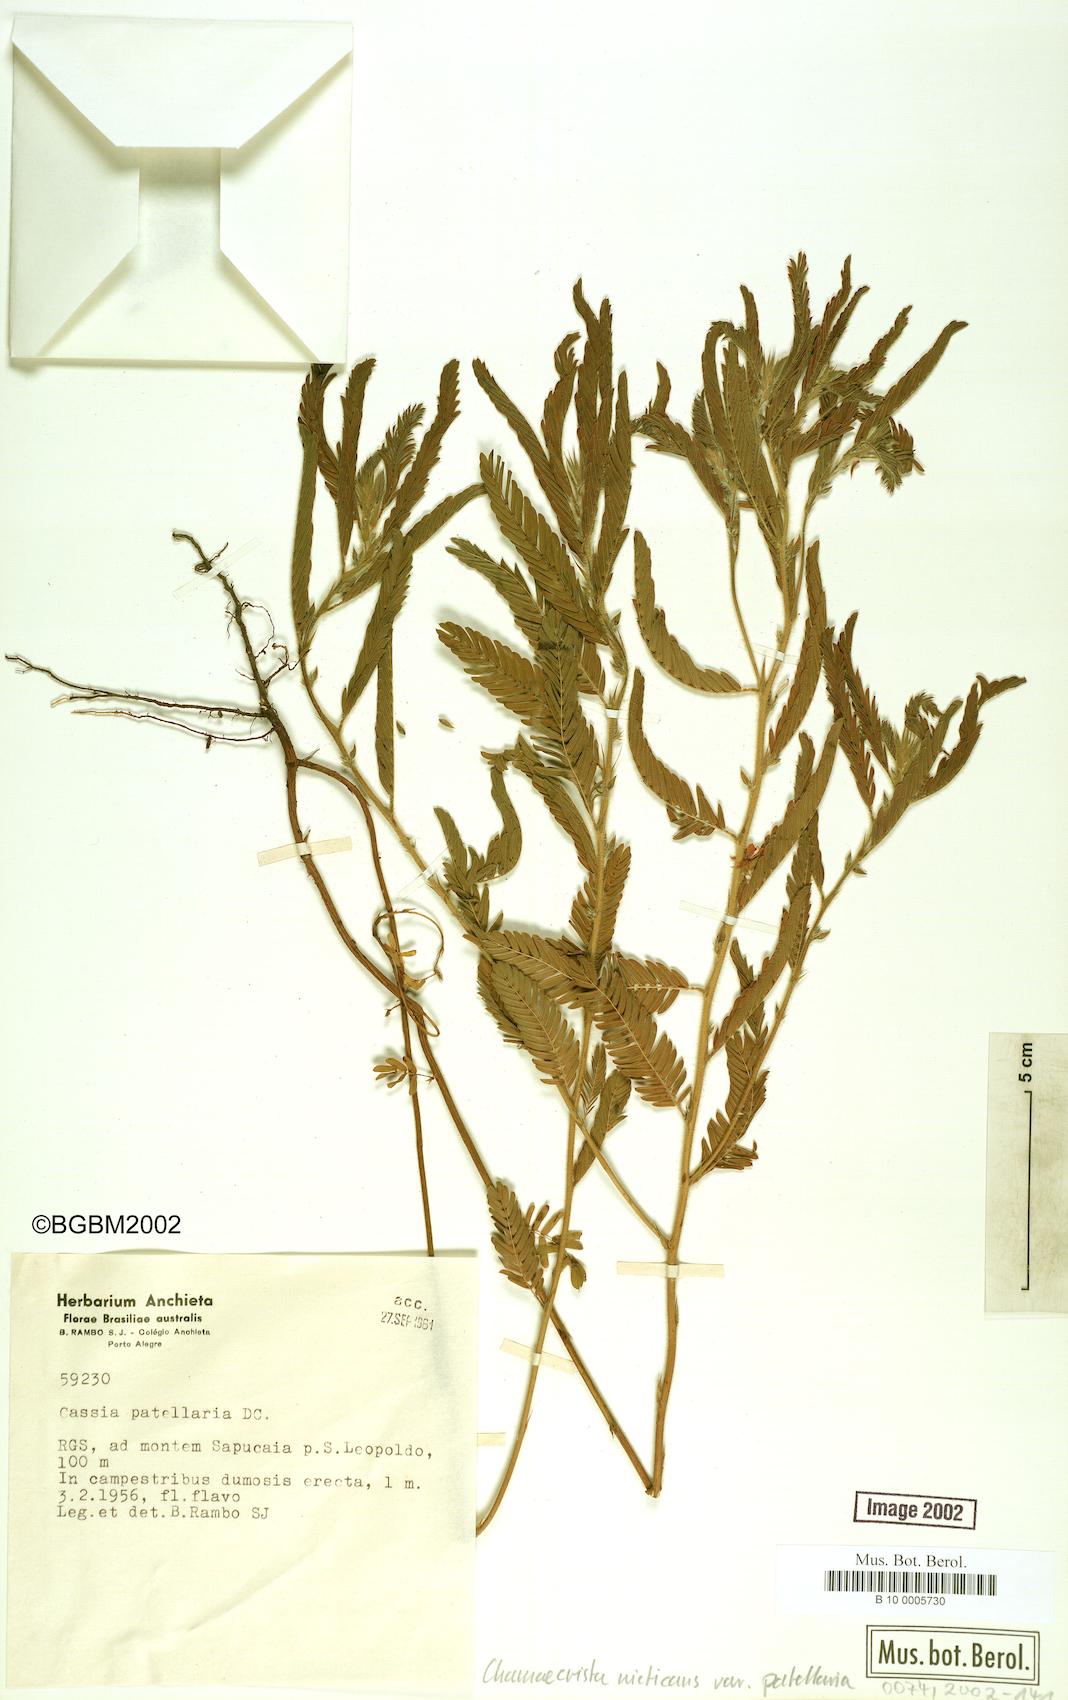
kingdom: Plantae
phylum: Tracheophyta
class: Magnoliopsida
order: Fabales
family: Fabaceae
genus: Chamaecrista
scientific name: Chamaecrista nictitans
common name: Sensitive cassia
